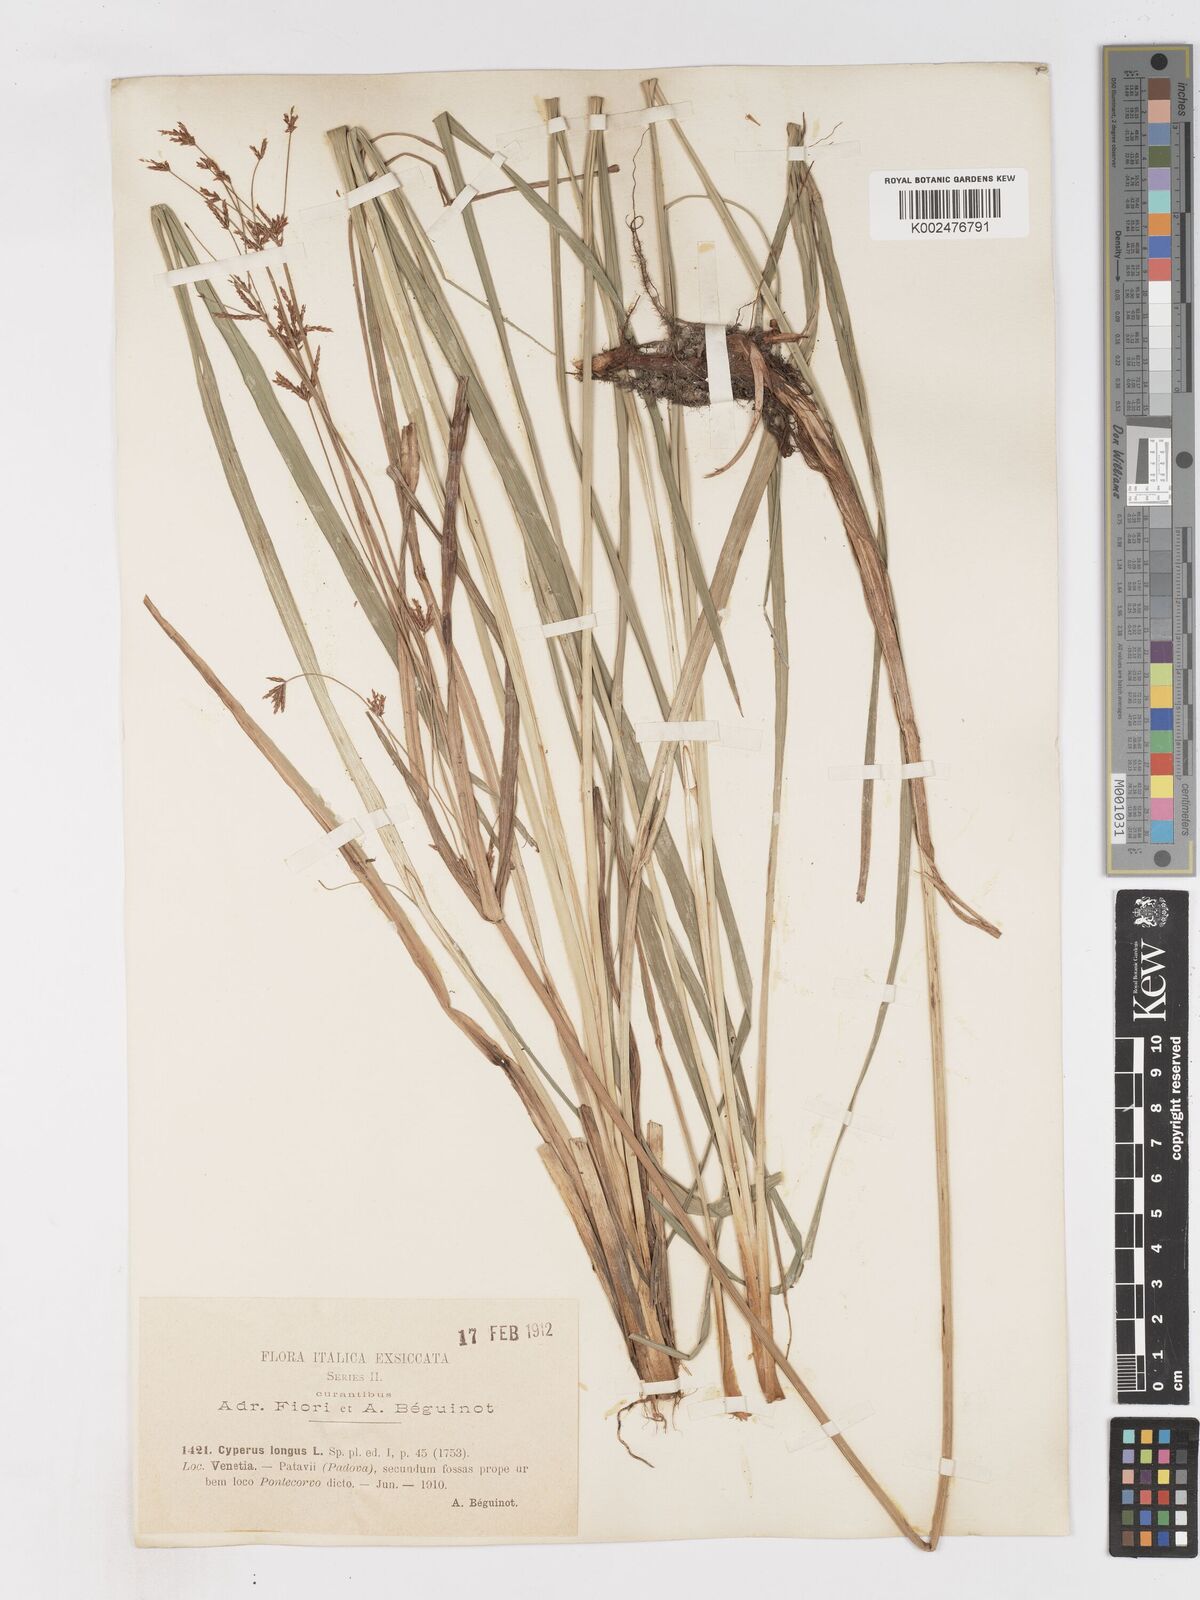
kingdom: Plantae
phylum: Tracheophyta
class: Liliopsida
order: Poales
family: Cyperaceae
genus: Cyperus
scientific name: Cyperus longus
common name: Galingale
